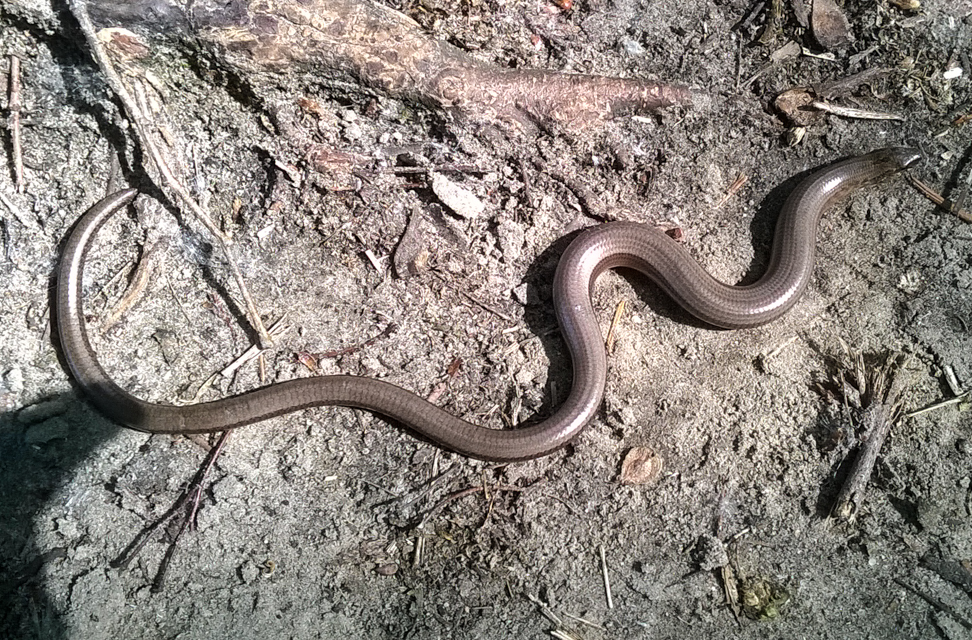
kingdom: Animalia
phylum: Chordata
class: Squamata
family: Anguidae
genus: Anguis
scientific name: Anguis fragilis
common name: Slow worm
